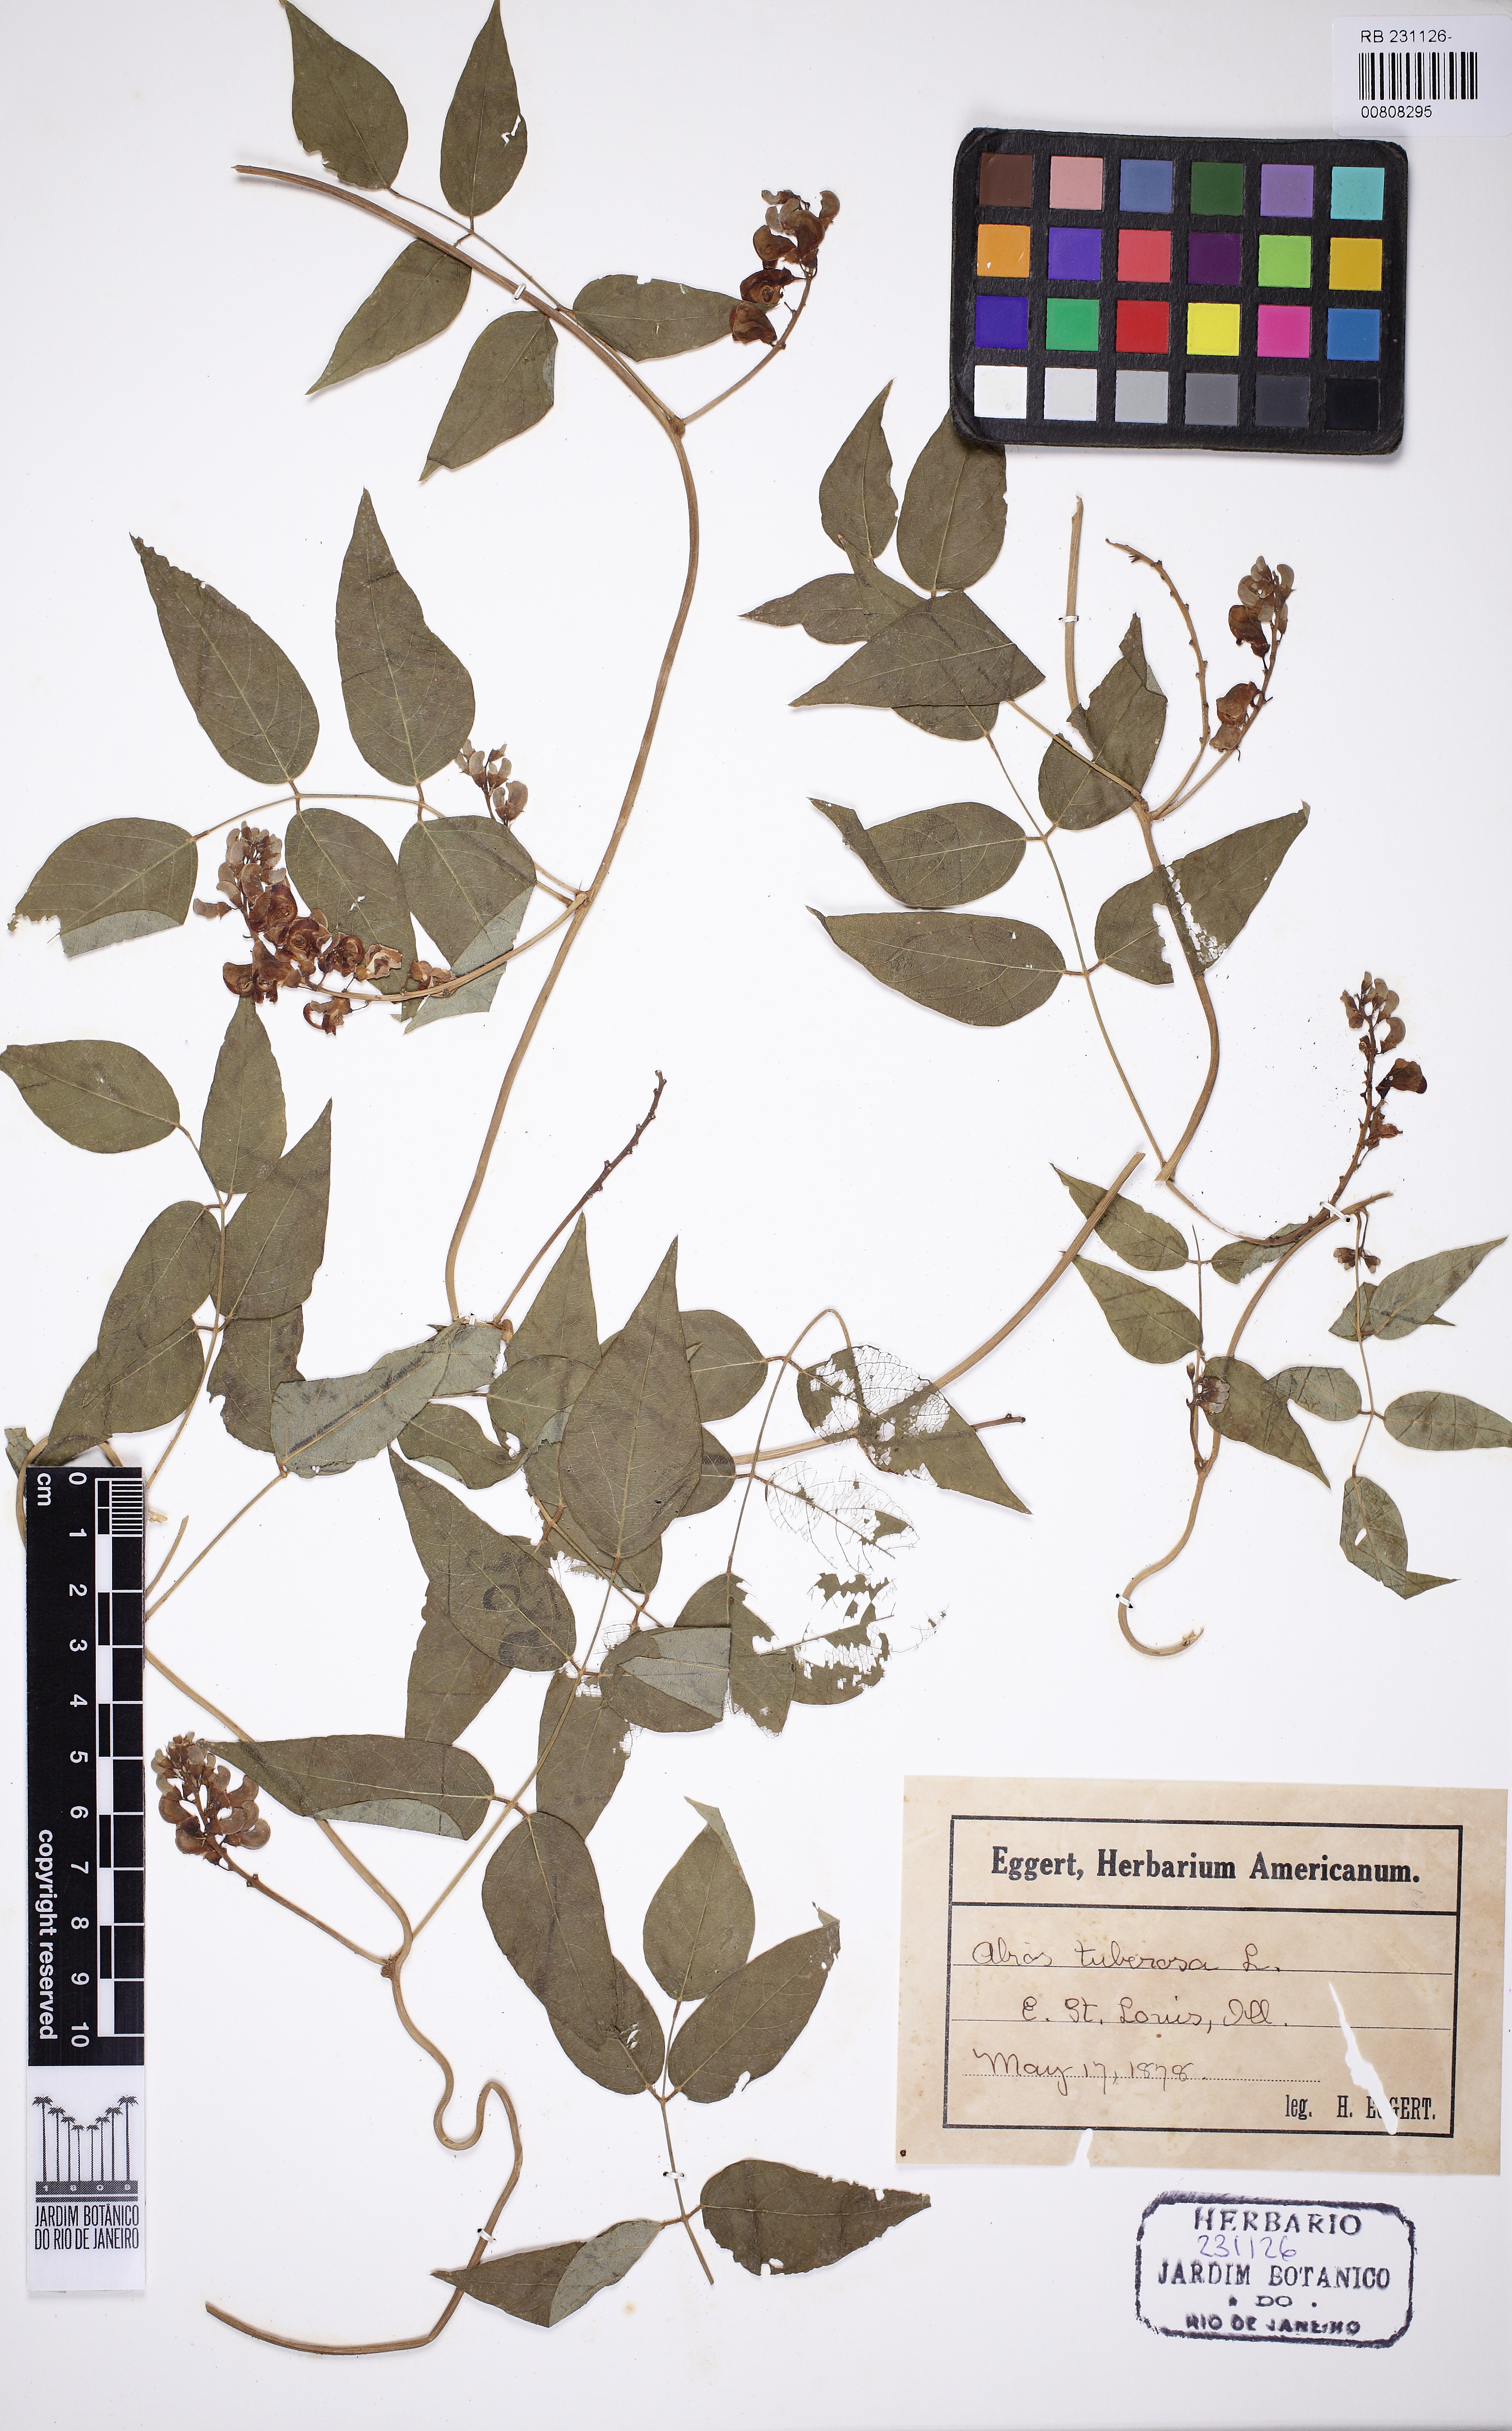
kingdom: Plantae
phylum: Tracheophyta
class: Magnoliopsida
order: Fabales
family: Fabaceae
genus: Apios
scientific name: Apios americana
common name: American potato-bean
